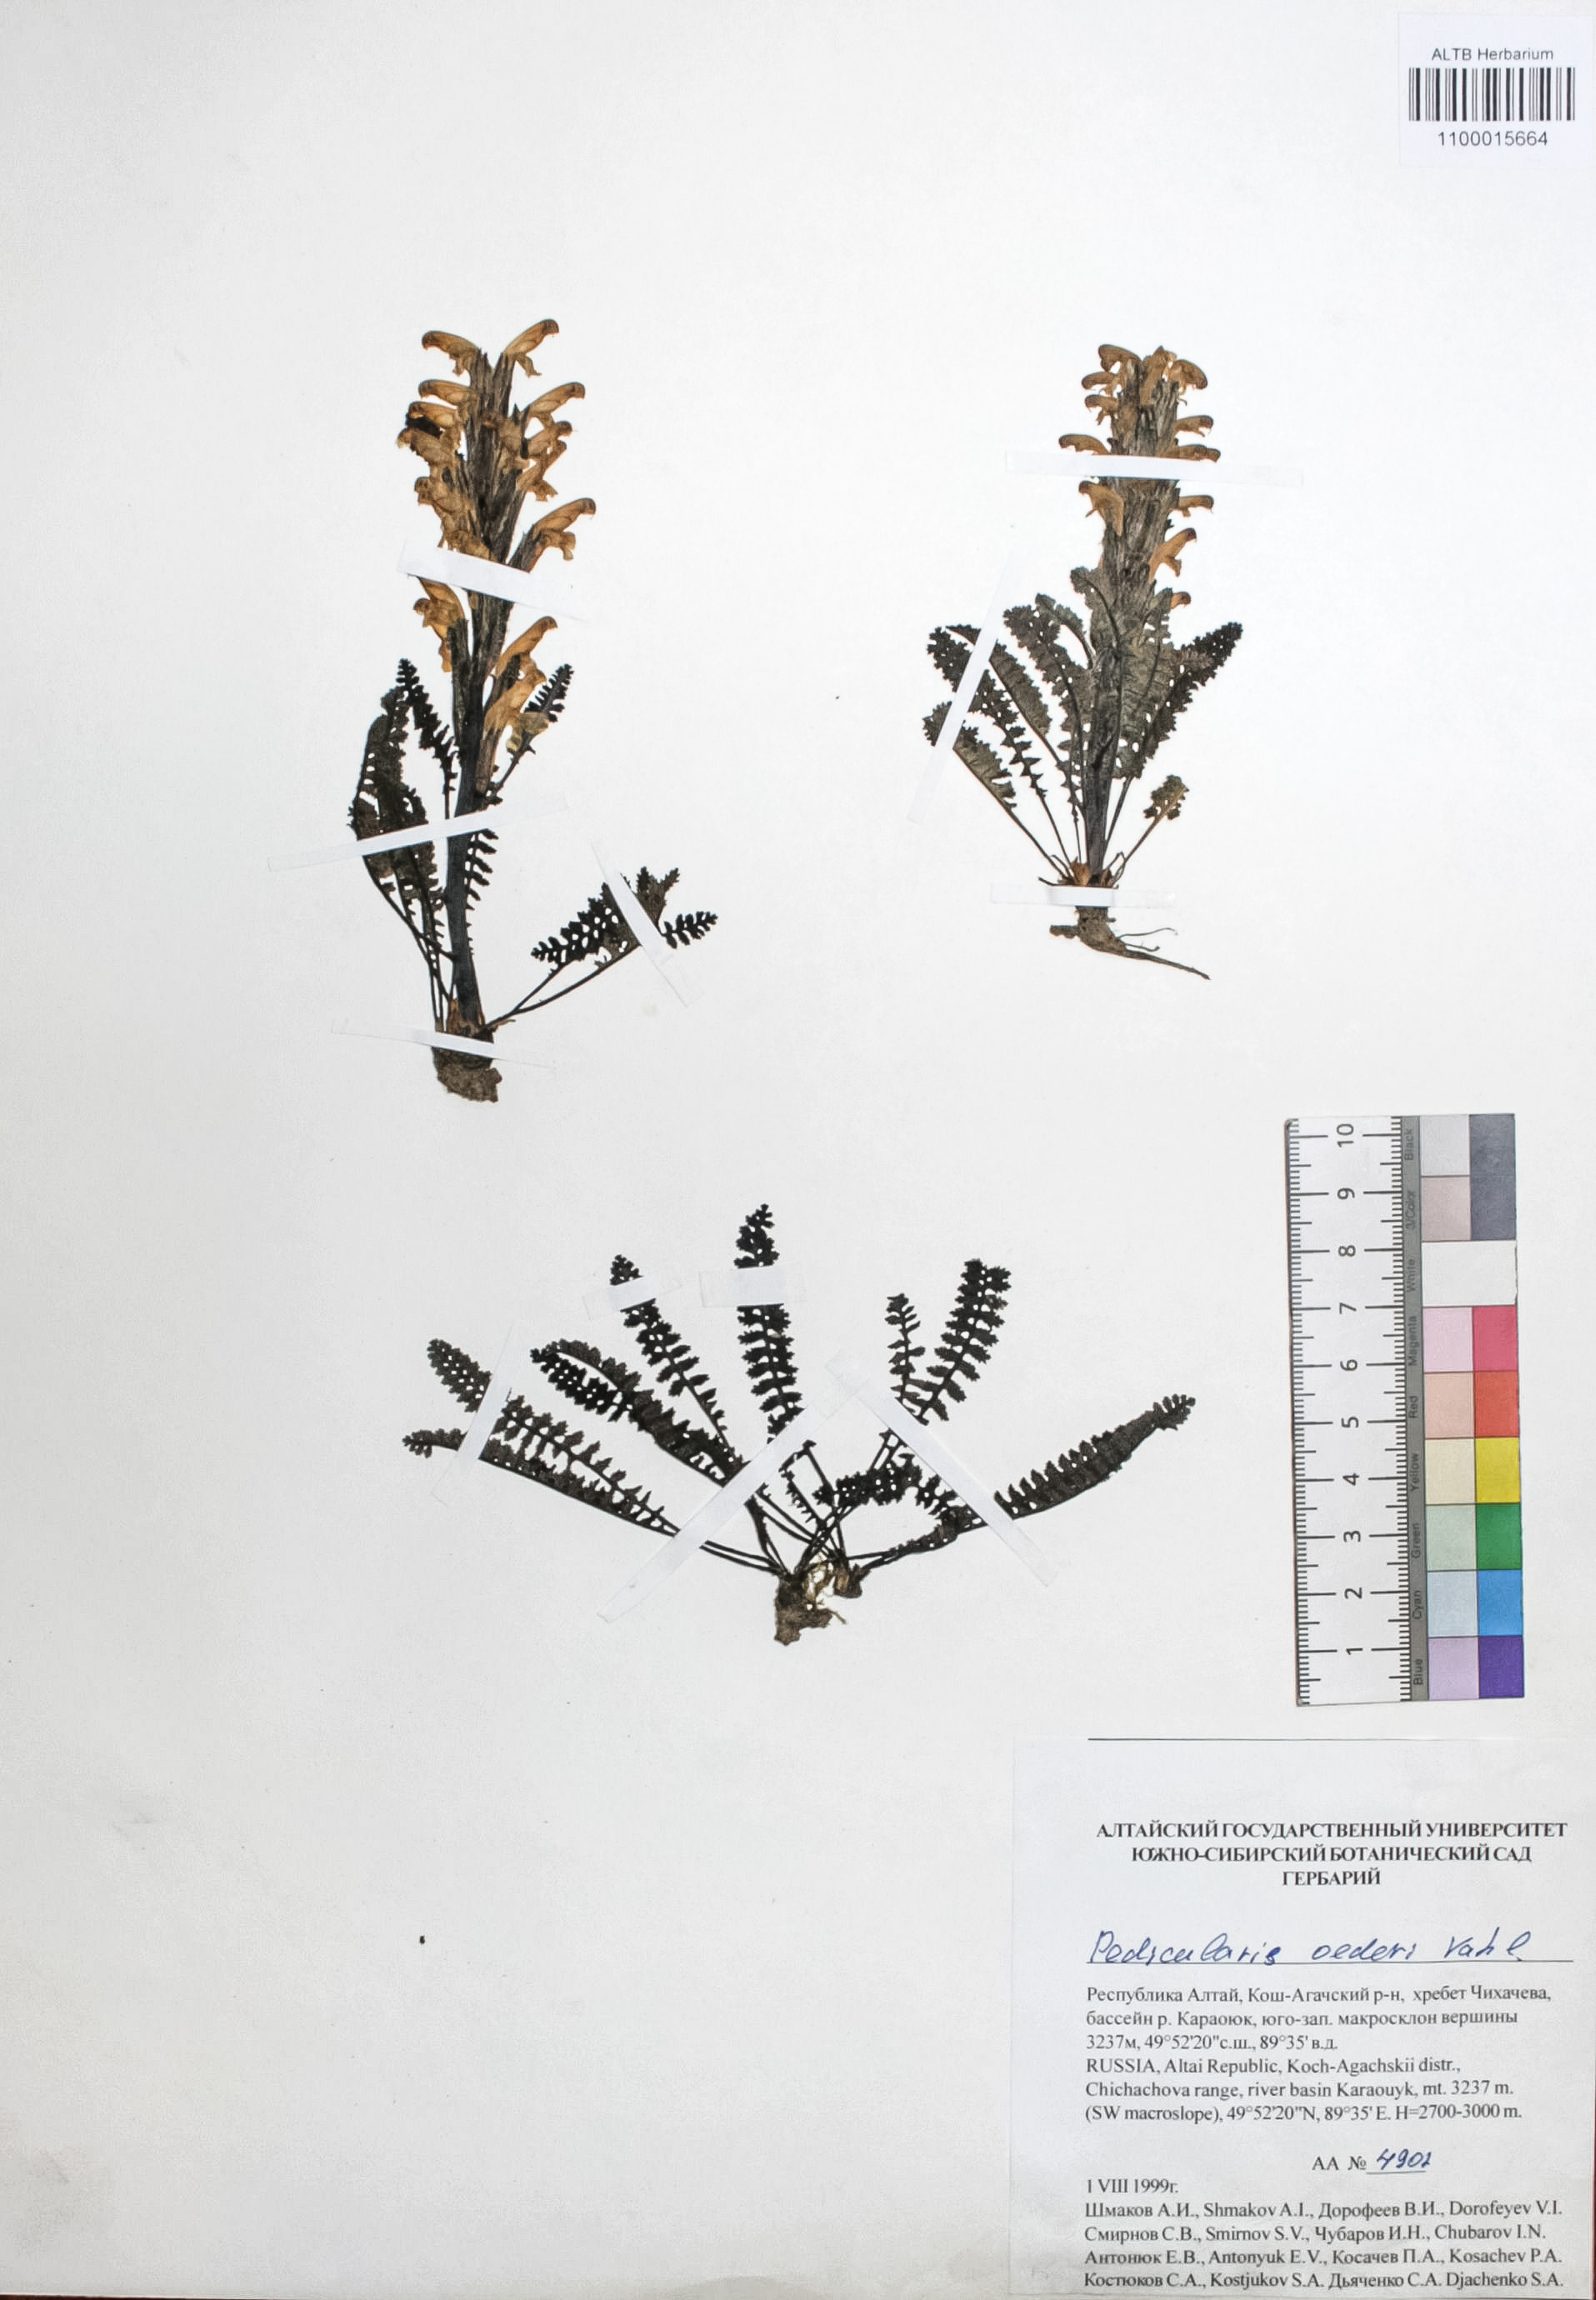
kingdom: Plantae
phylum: Tracheophyta
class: Magnoliopsida
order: Caryophyllales
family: Caryophyllaceae
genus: Silene
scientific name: Silene graminifolia
